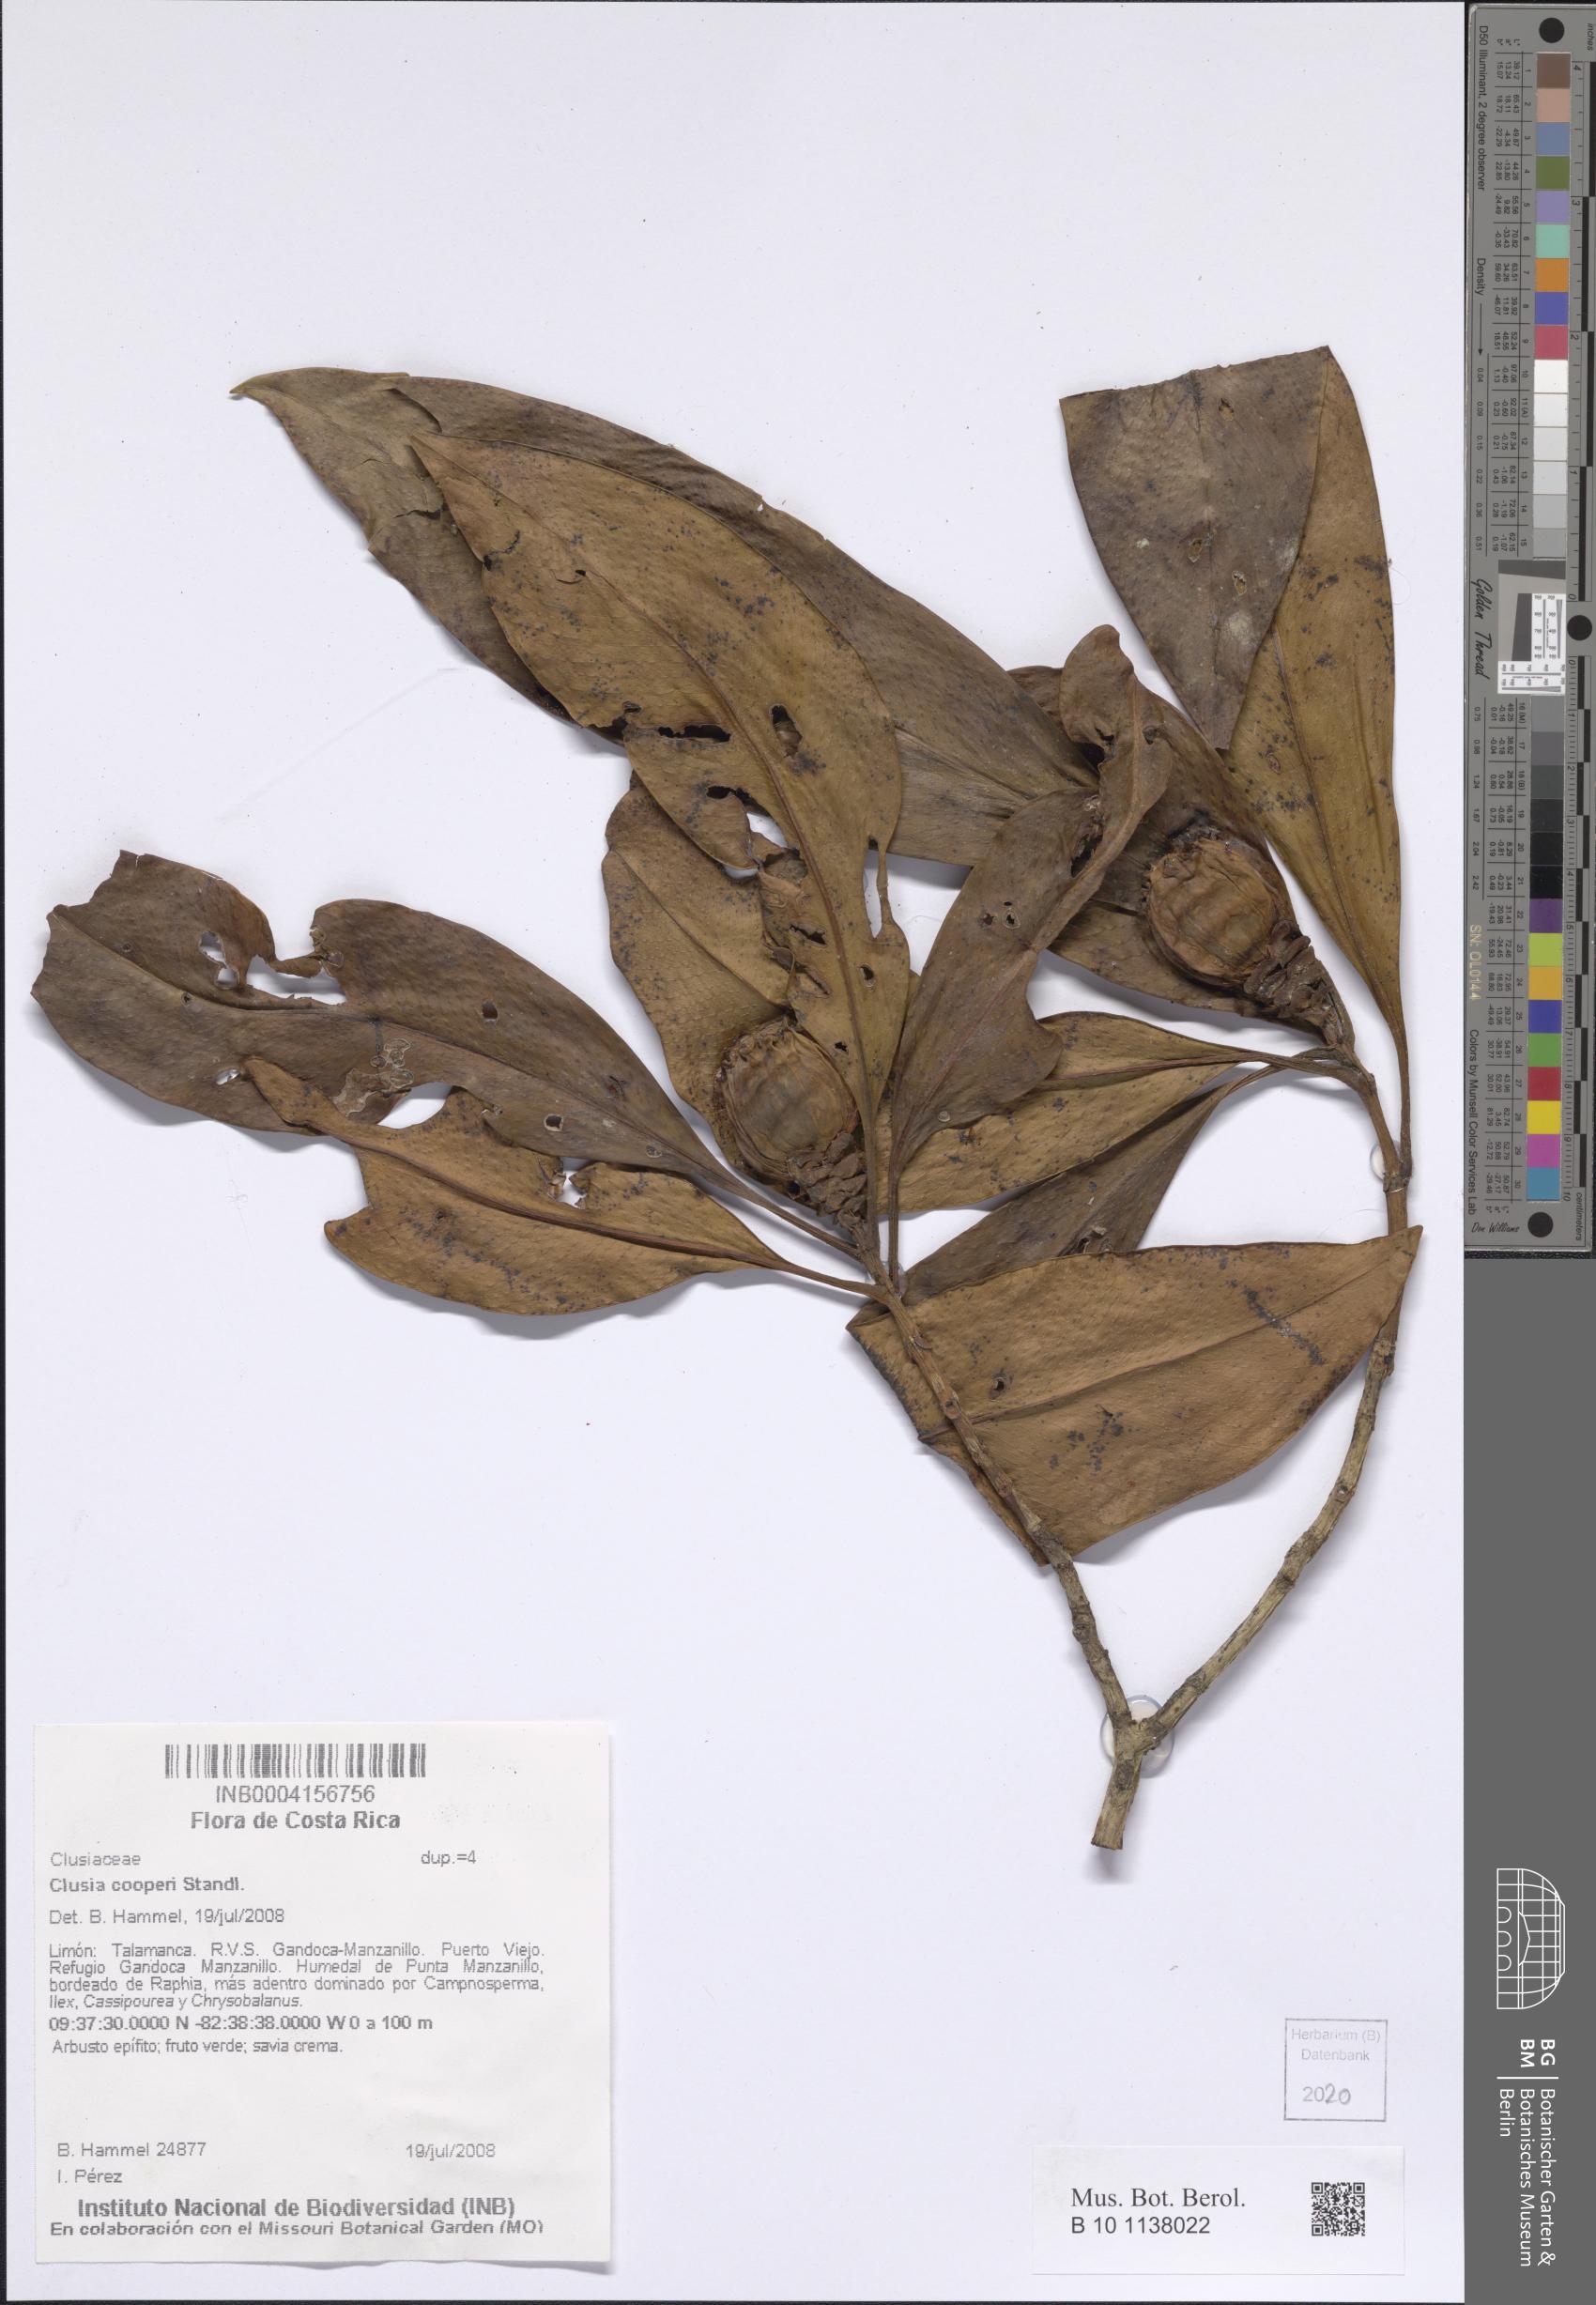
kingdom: Plantae
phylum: Tracheophyta
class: Magnoliopsida
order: Malpighiales
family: Clusiaceae
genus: Clusia
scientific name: Clusia cooperi
